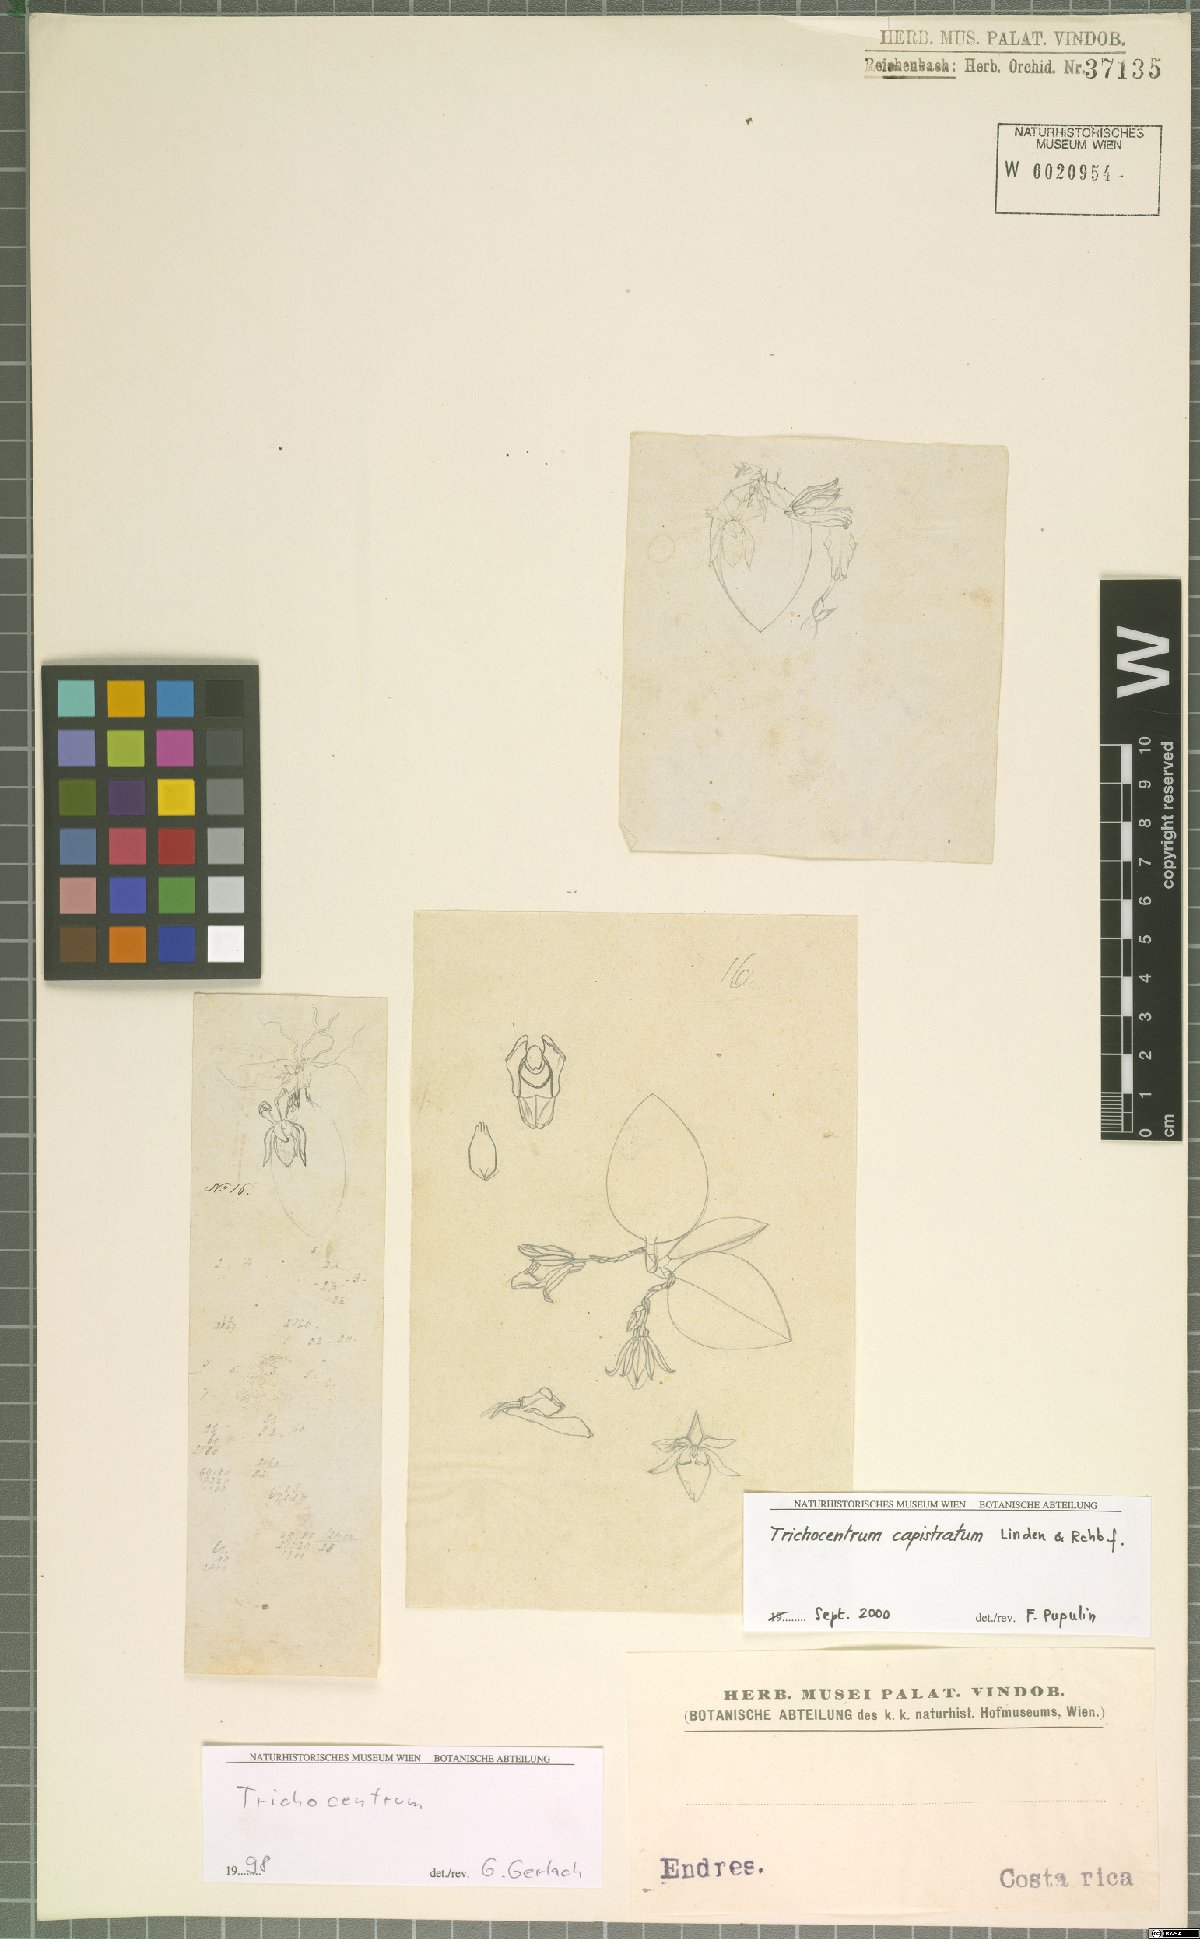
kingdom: Plantae
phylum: Tracheophyta
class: Liliopsida
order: Asparagales
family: Orchidaceae
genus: Trichocentrum
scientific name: Trichocentrum caloceras
